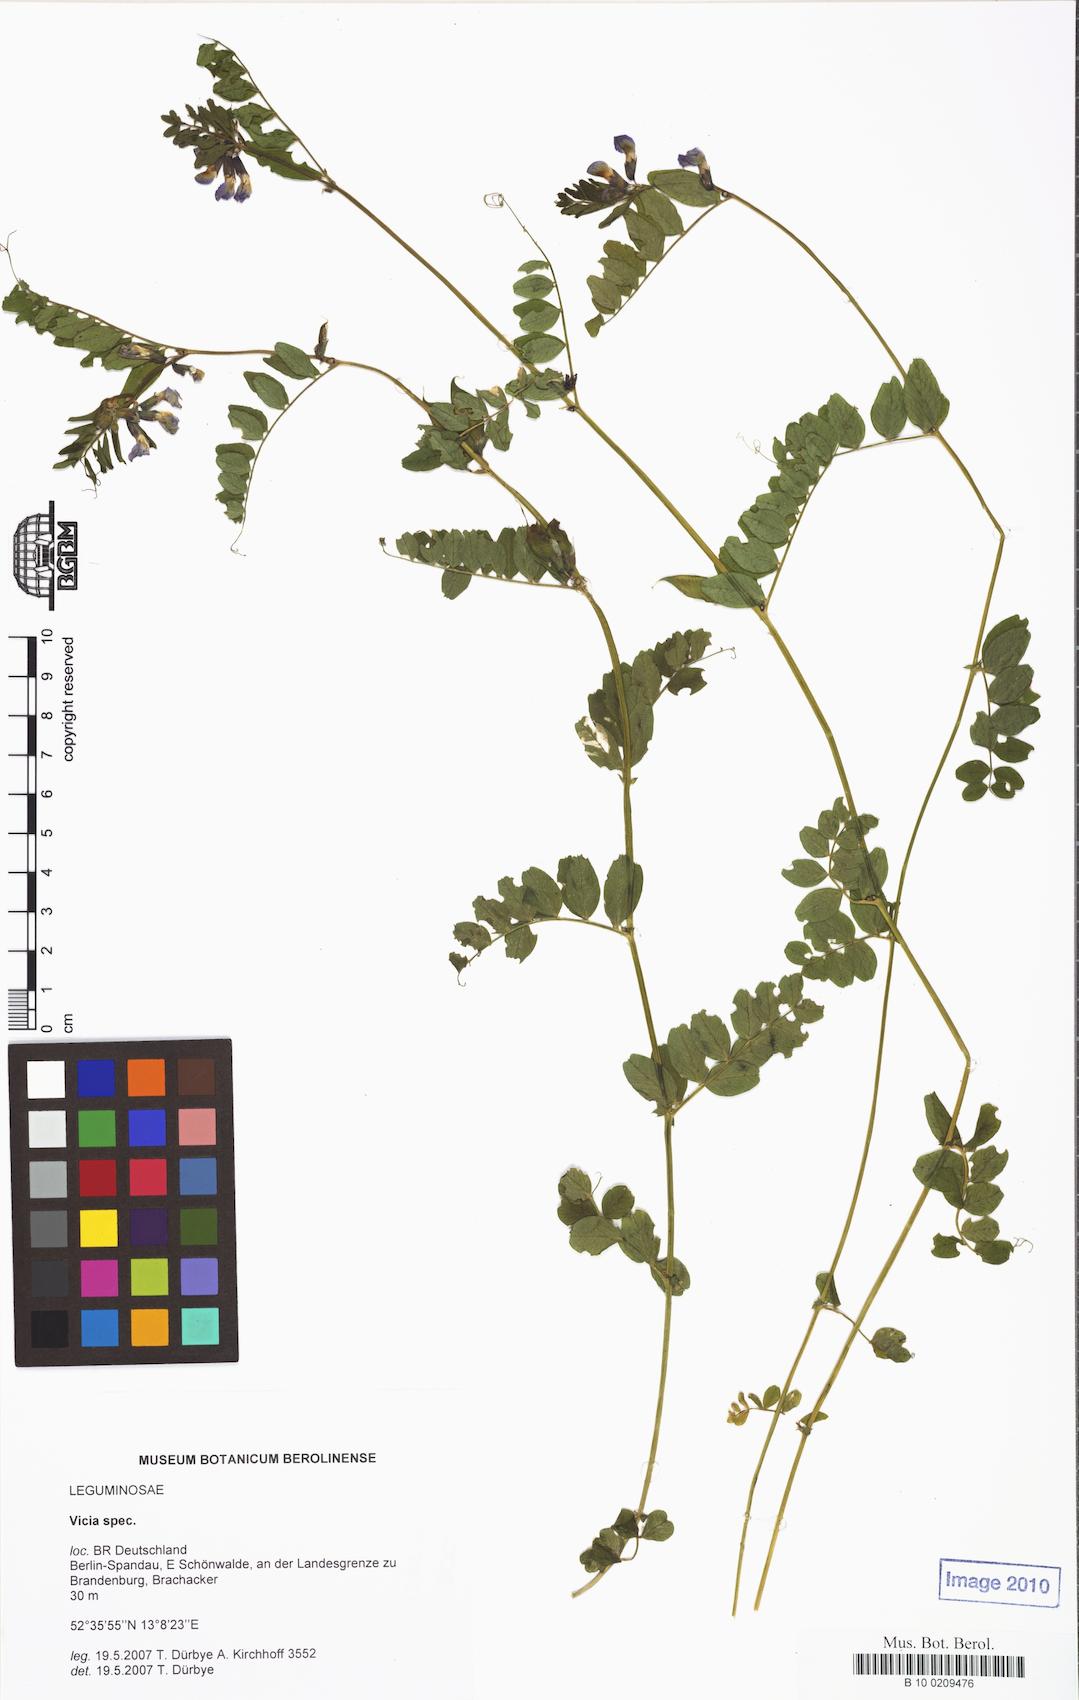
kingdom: Plantae
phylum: Tracheophyta
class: Magnoliopsida
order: Fabales
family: Fabaceae
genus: Vicia
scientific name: Vicia
